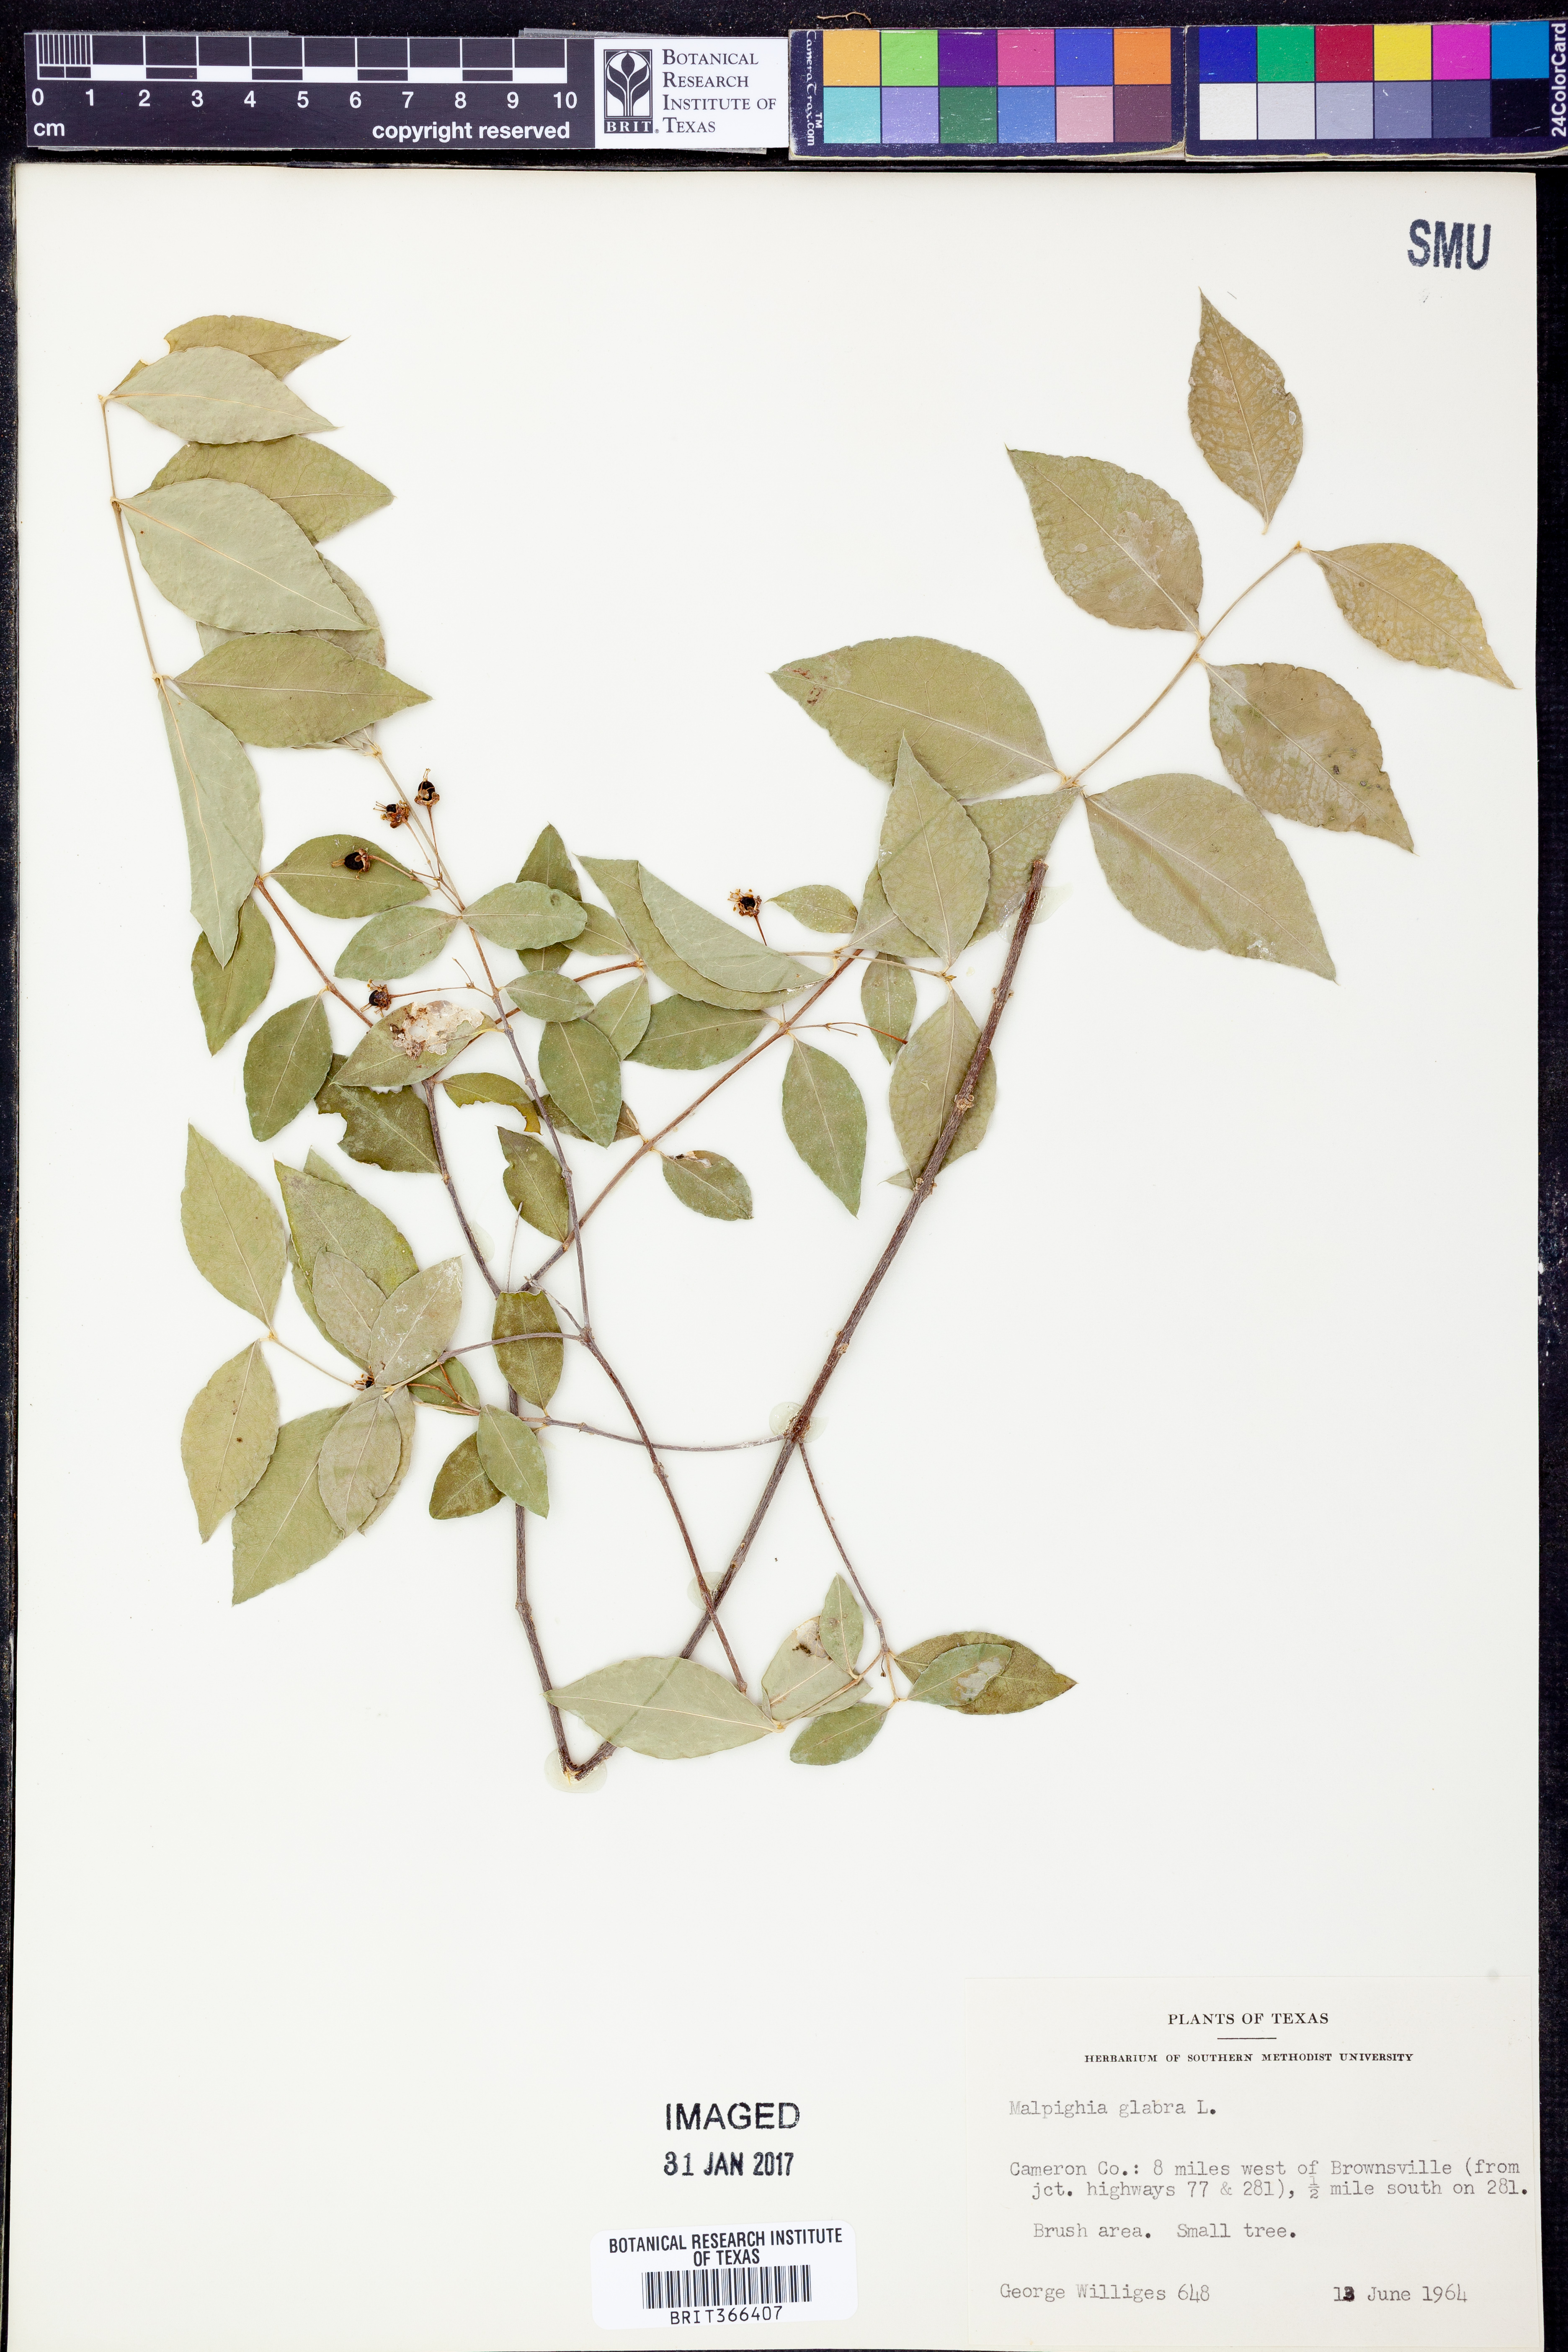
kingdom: Plantae
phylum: Tracheophyta
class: Magnoliopsida
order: Malpighiales
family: Malpighiaceae
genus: Malpighia
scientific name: Malpighia glabra
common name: Barbados cherry
